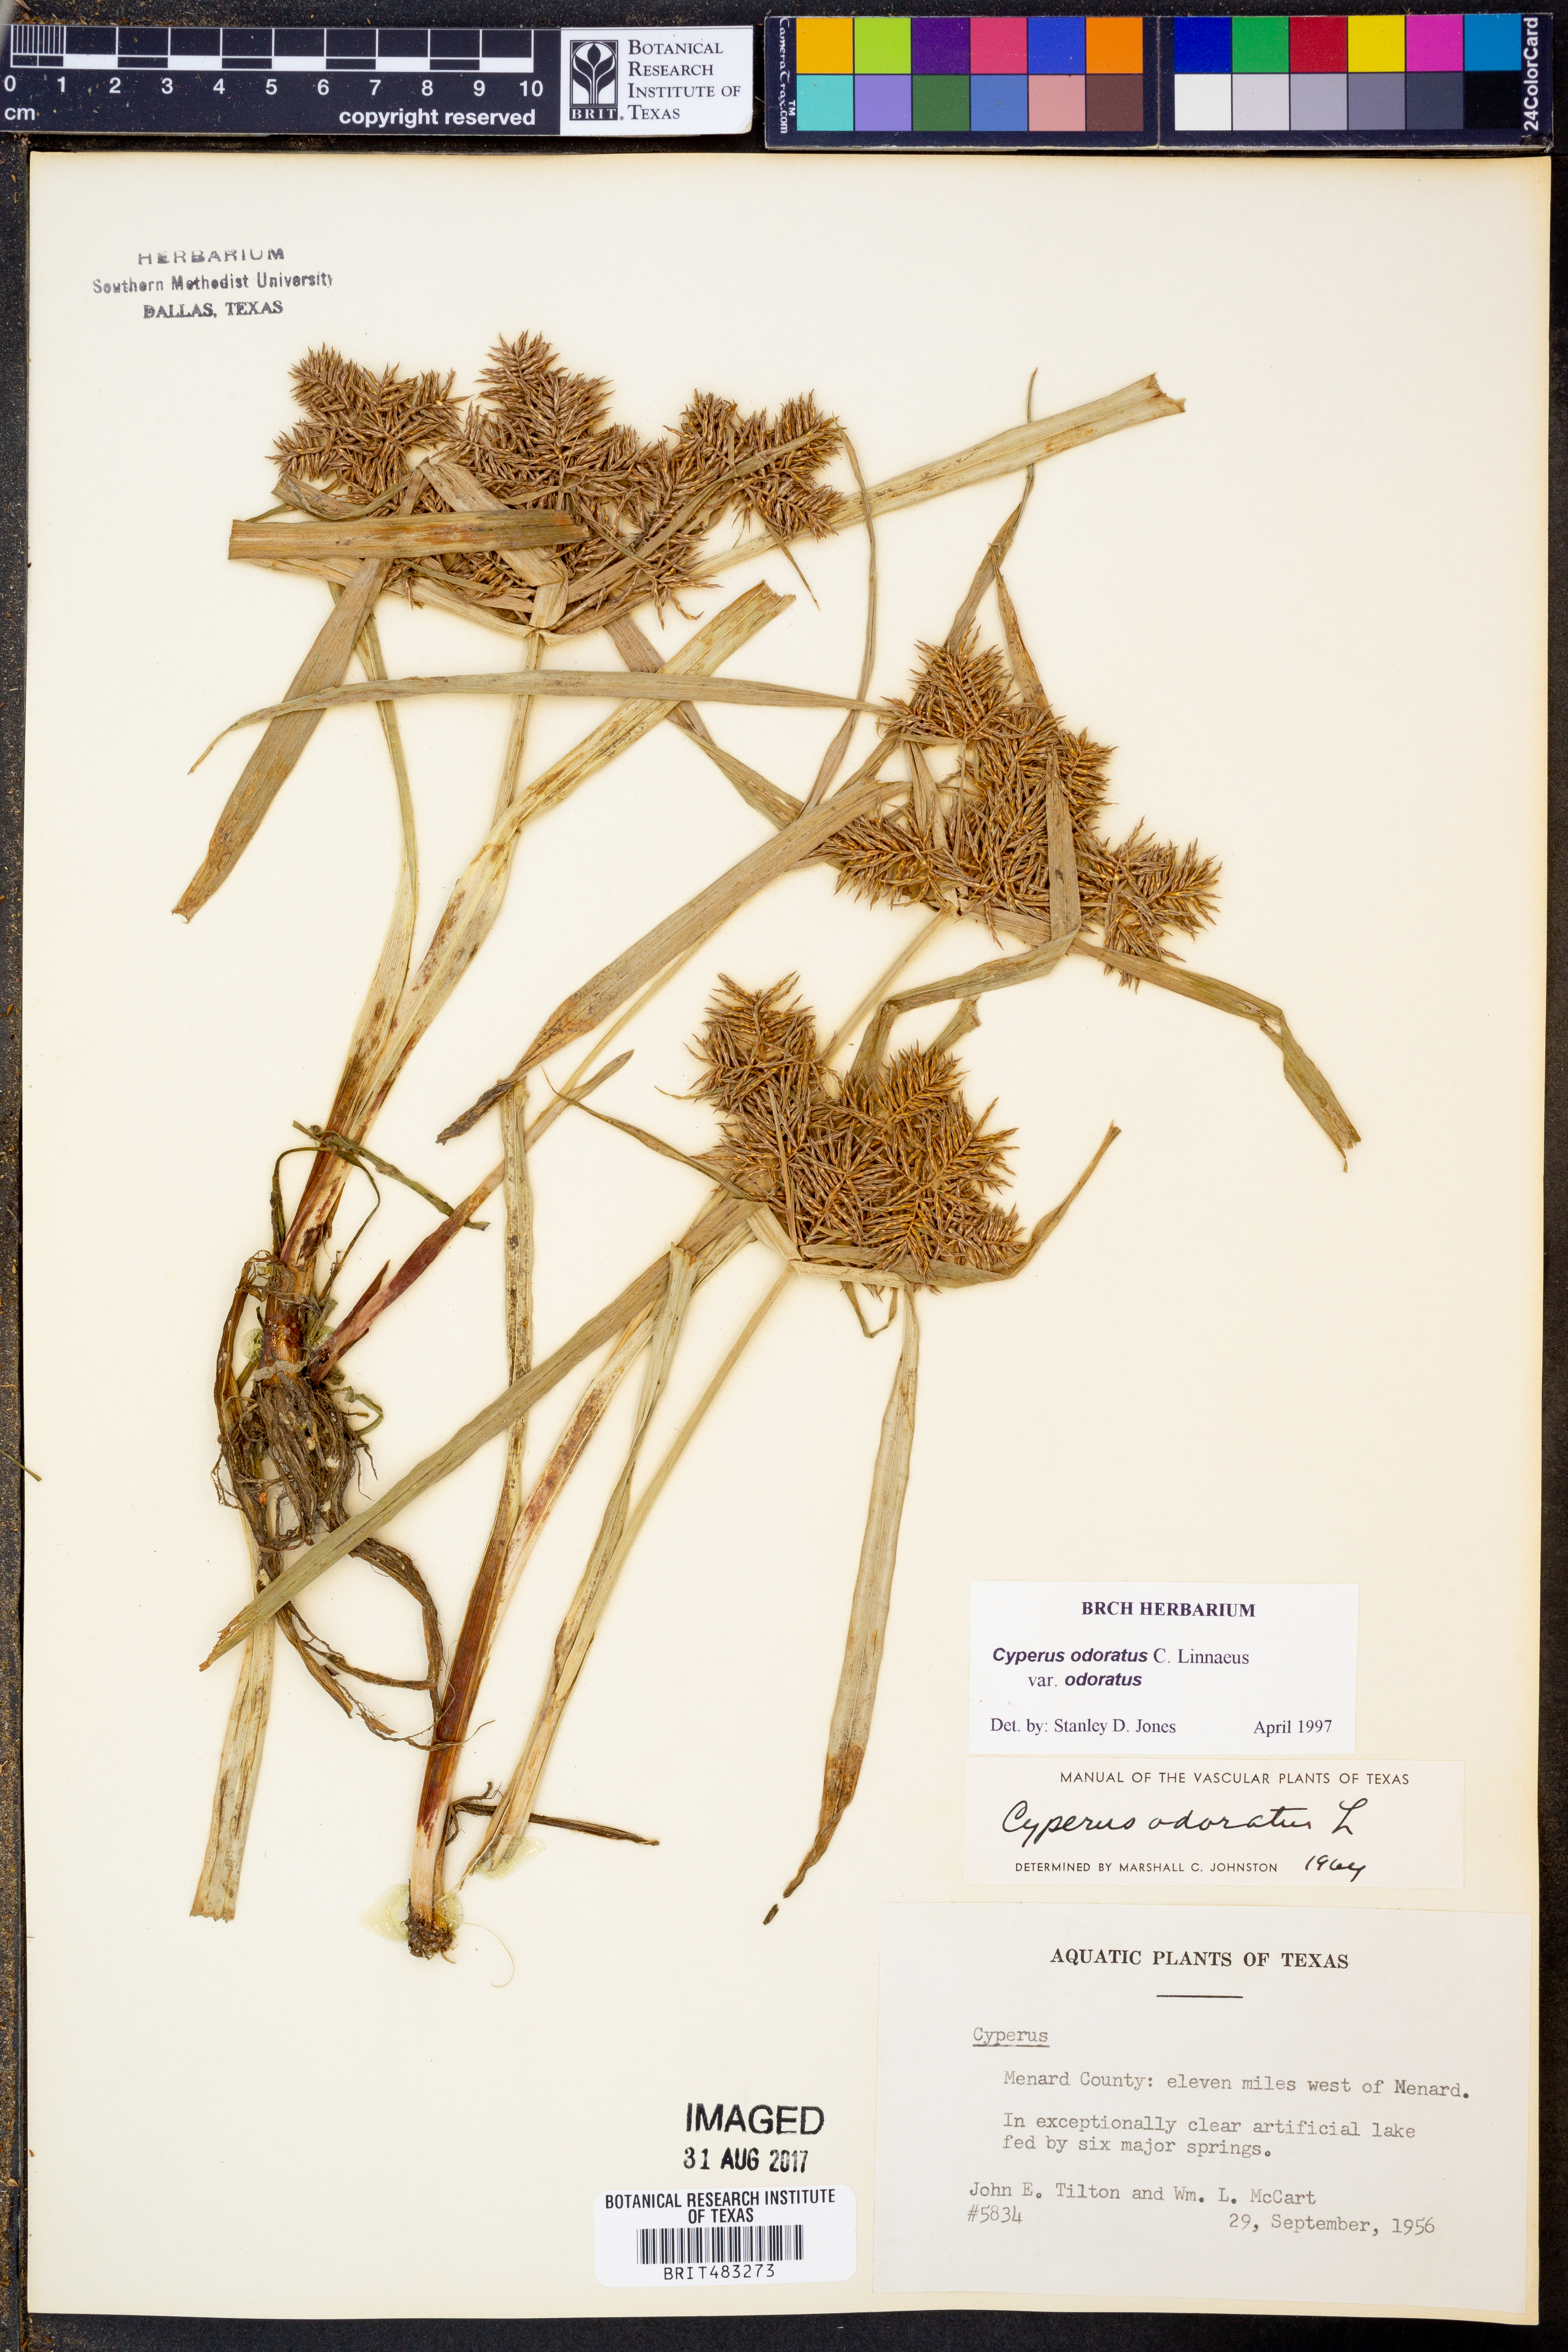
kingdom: Plantae
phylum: Tracheophyta
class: Liliopsida
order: Poales
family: Cyperaceae
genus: Cyperus
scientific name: Cyperus odoratus
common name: Fragrant flatsedge
